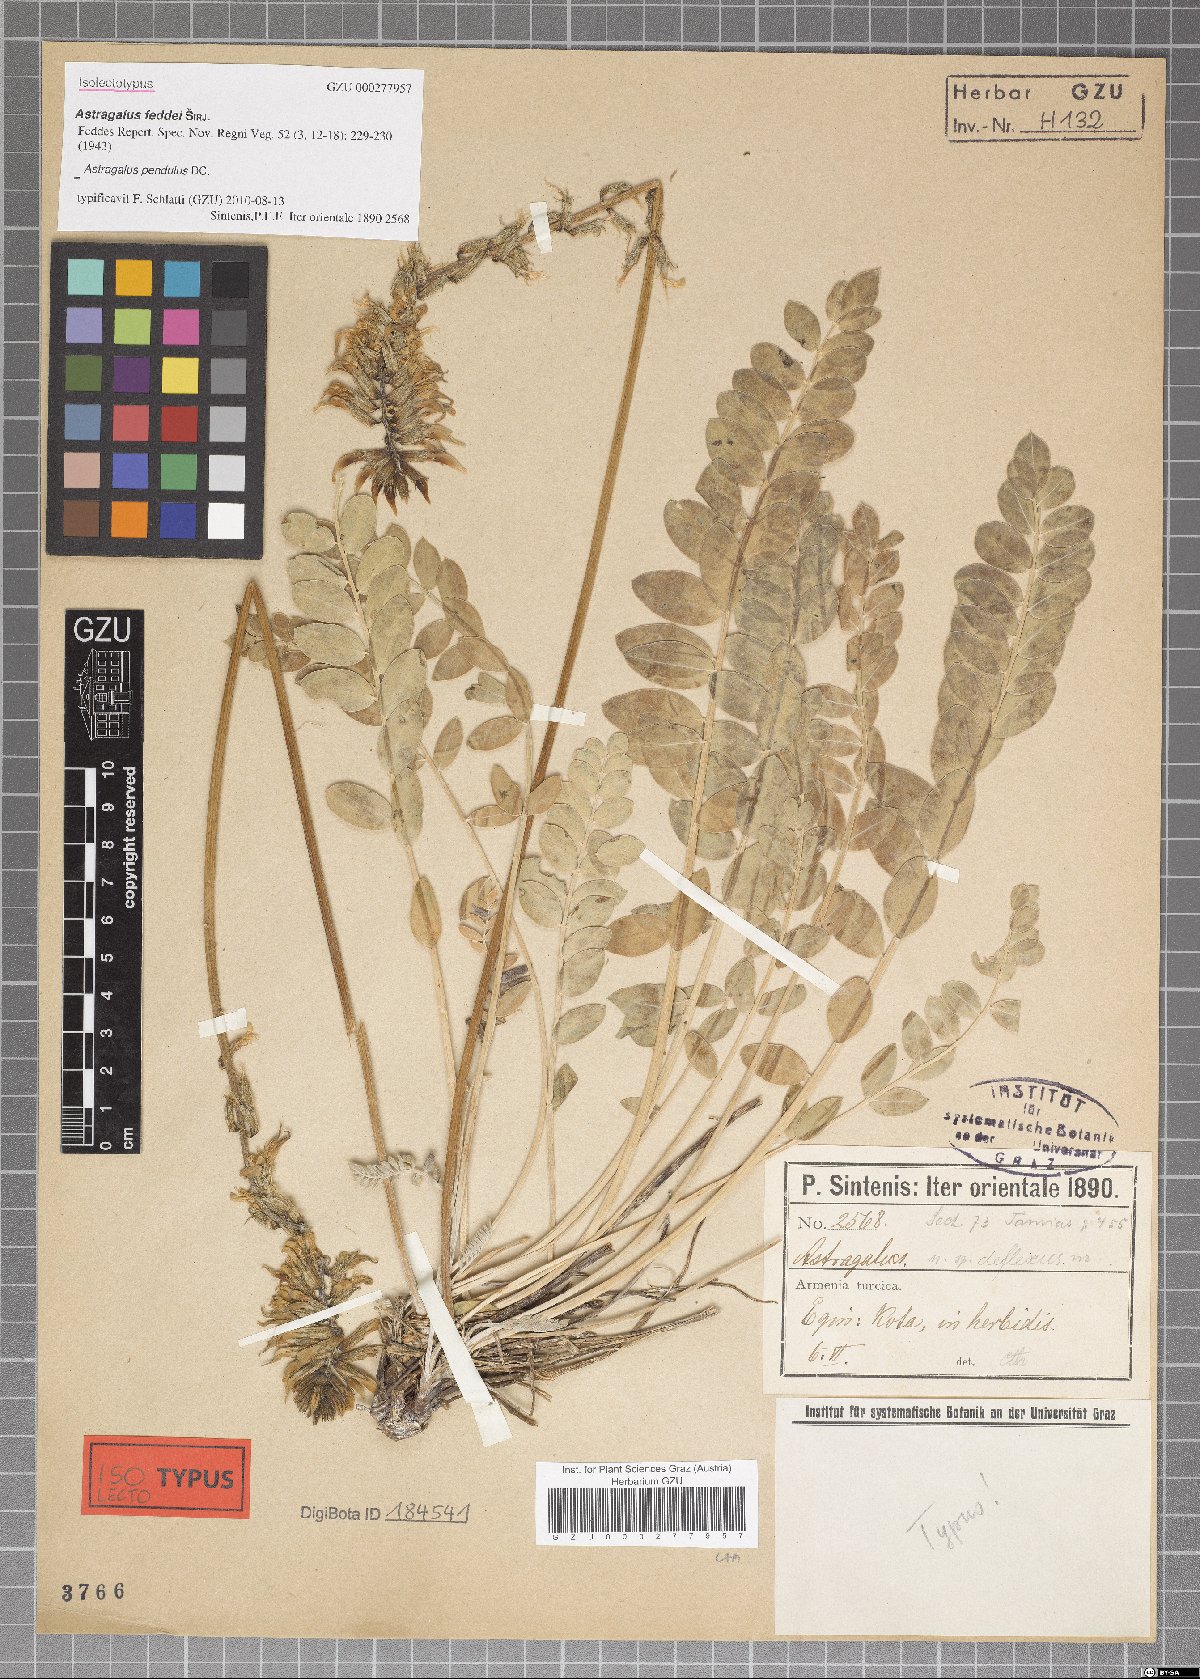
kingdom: Plantae
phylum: Tracheophyta
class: Magnoliopsida
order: Fabales
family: Fabaceae
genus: Astragalus
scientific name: Astragalus pendulus
